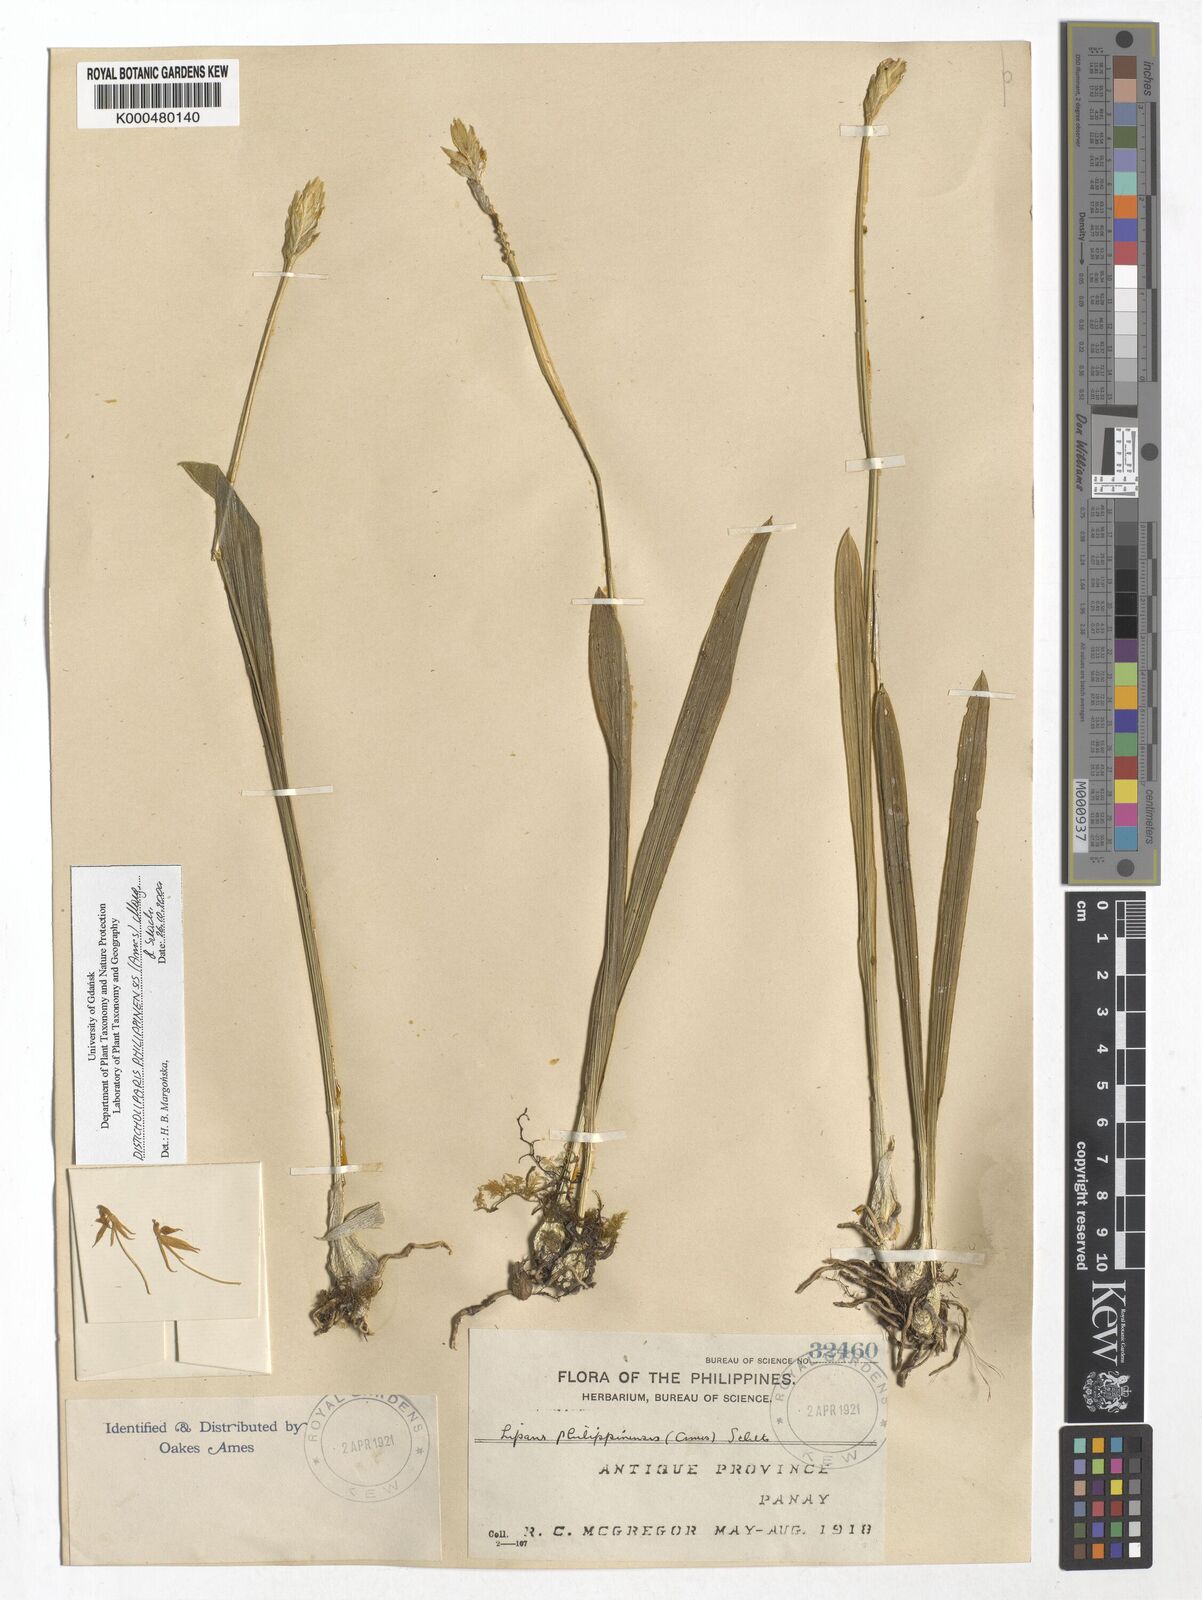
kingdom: Plantae
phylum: Tracheophyta
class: Liliopsida
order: Asparagales
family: Orchidaceae
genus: Liparis
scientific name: Liparis philippinensis
